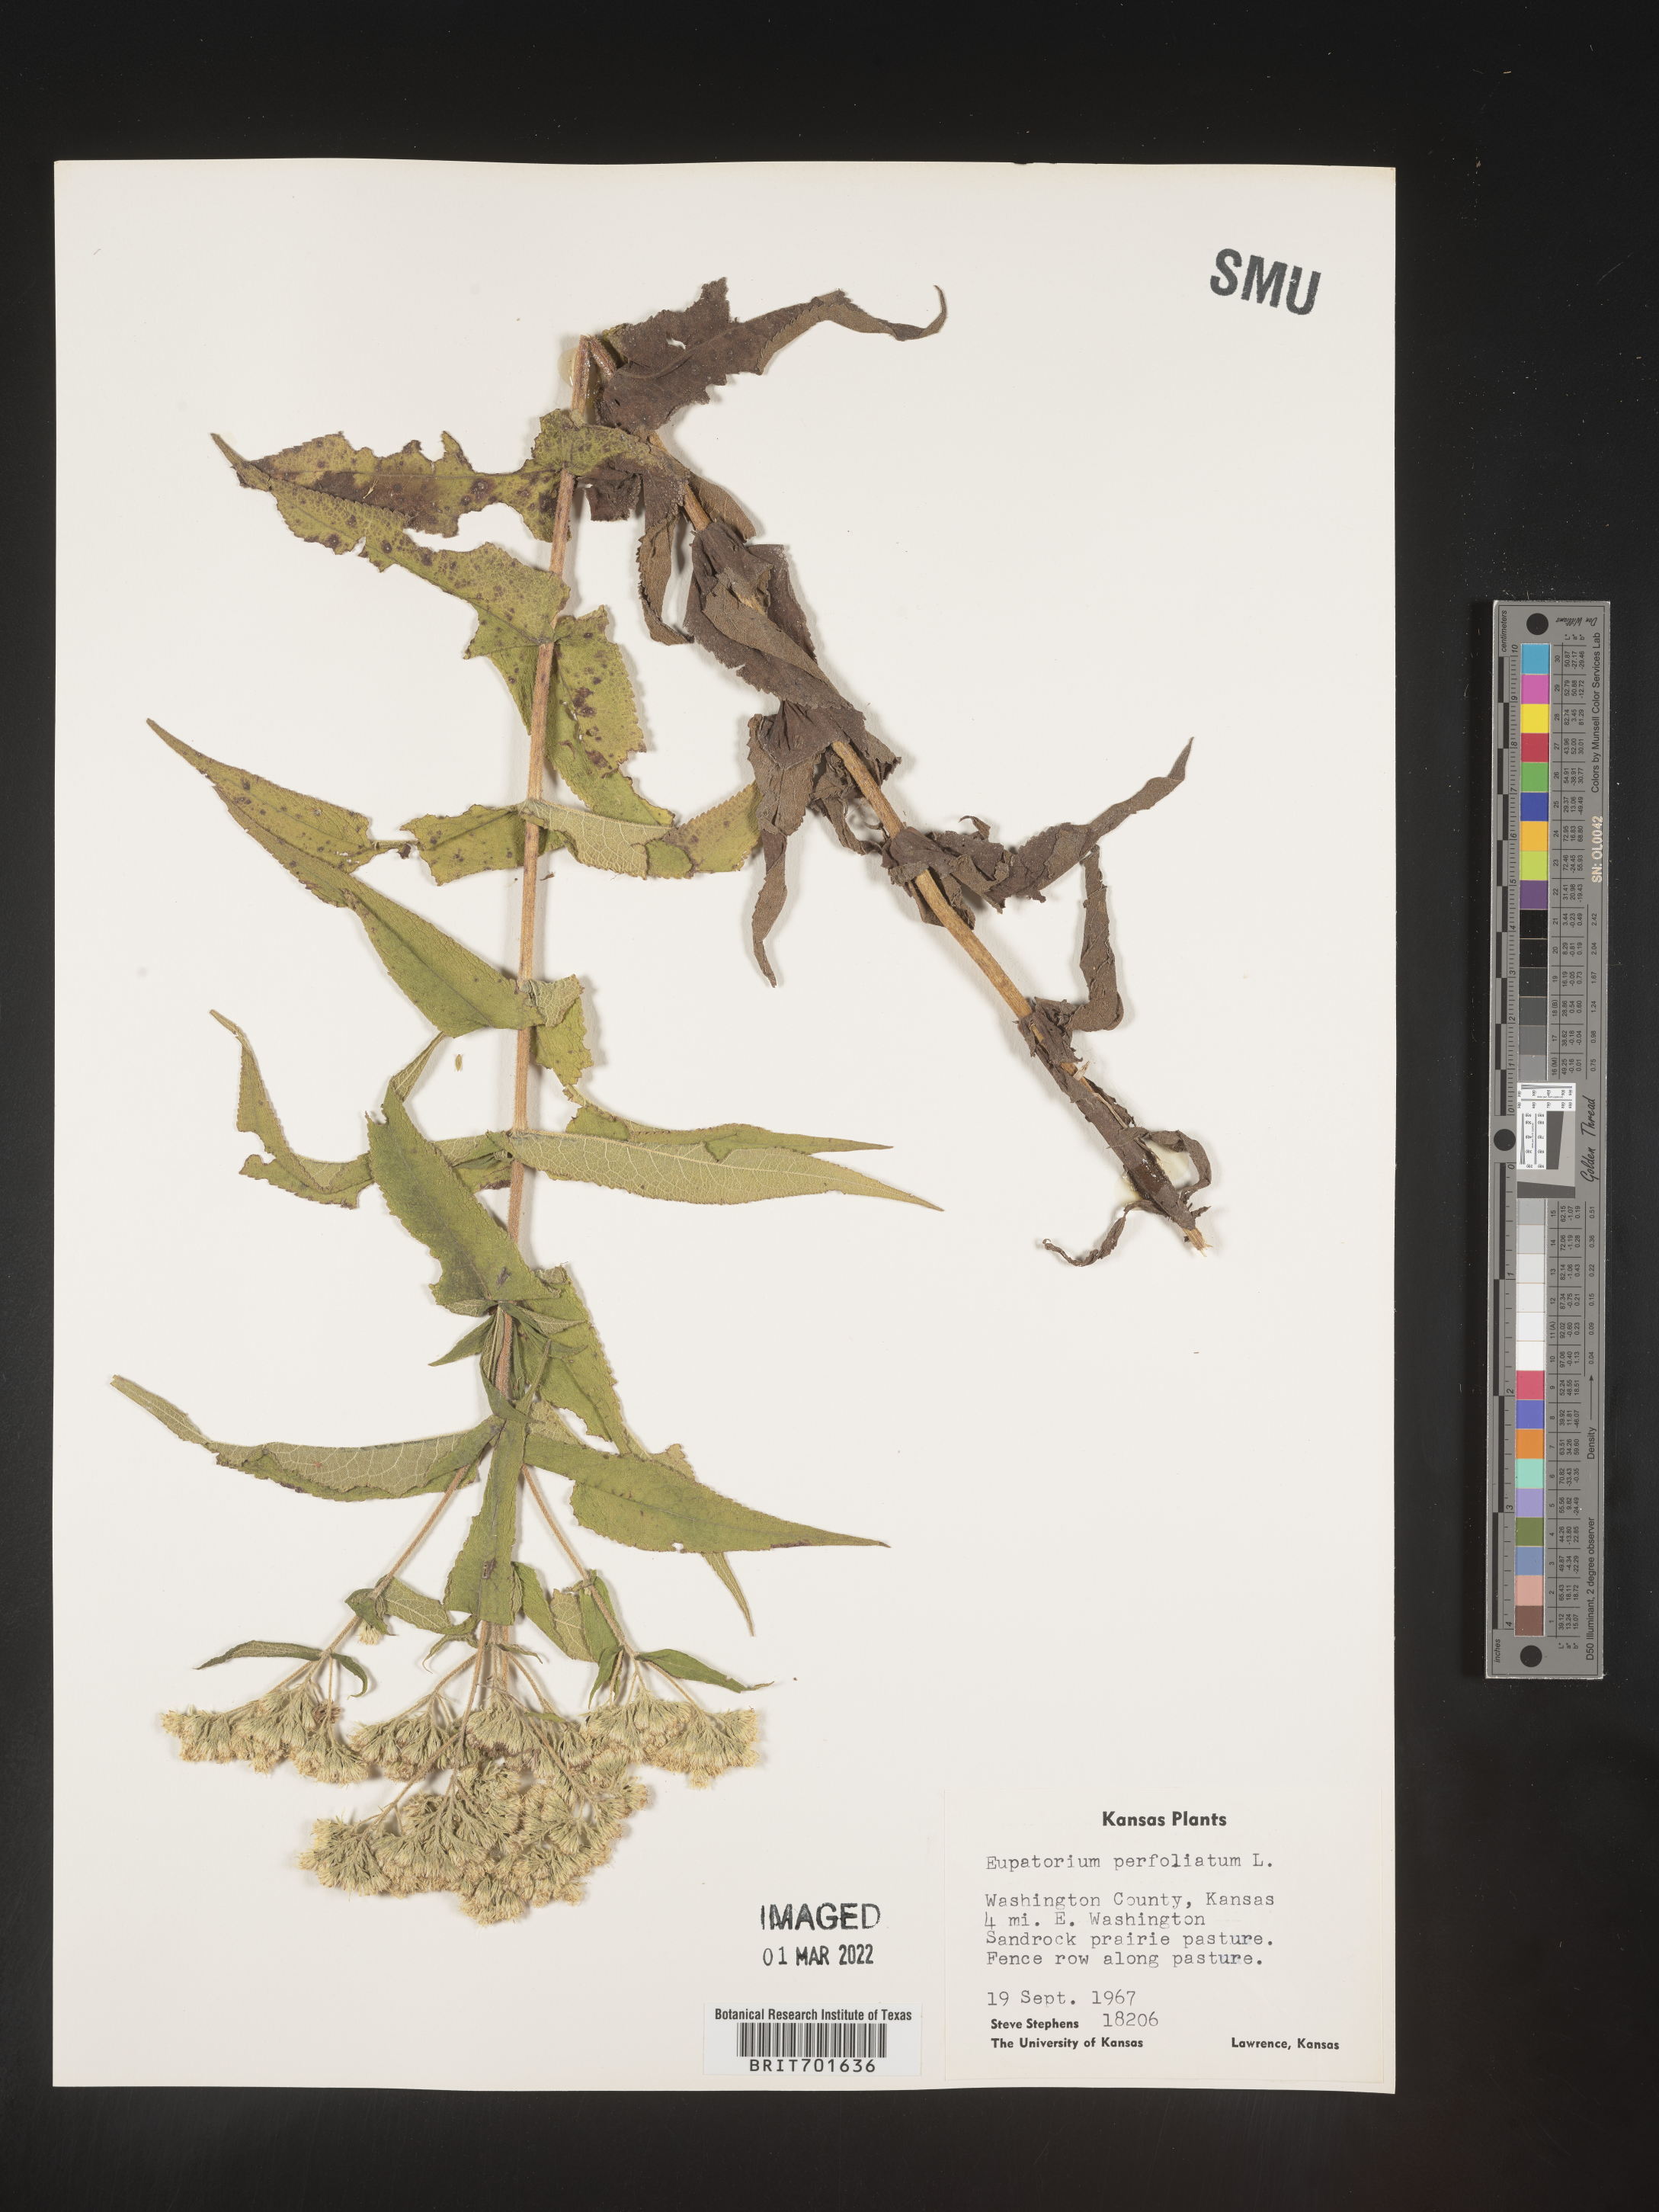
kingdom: Plantae
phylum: Tracheophyta
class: Magnoliopsida
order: Asterales
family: Asteraceae
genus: Eupatorium
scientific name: Eupatorium perfoliatum
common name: Boneset
